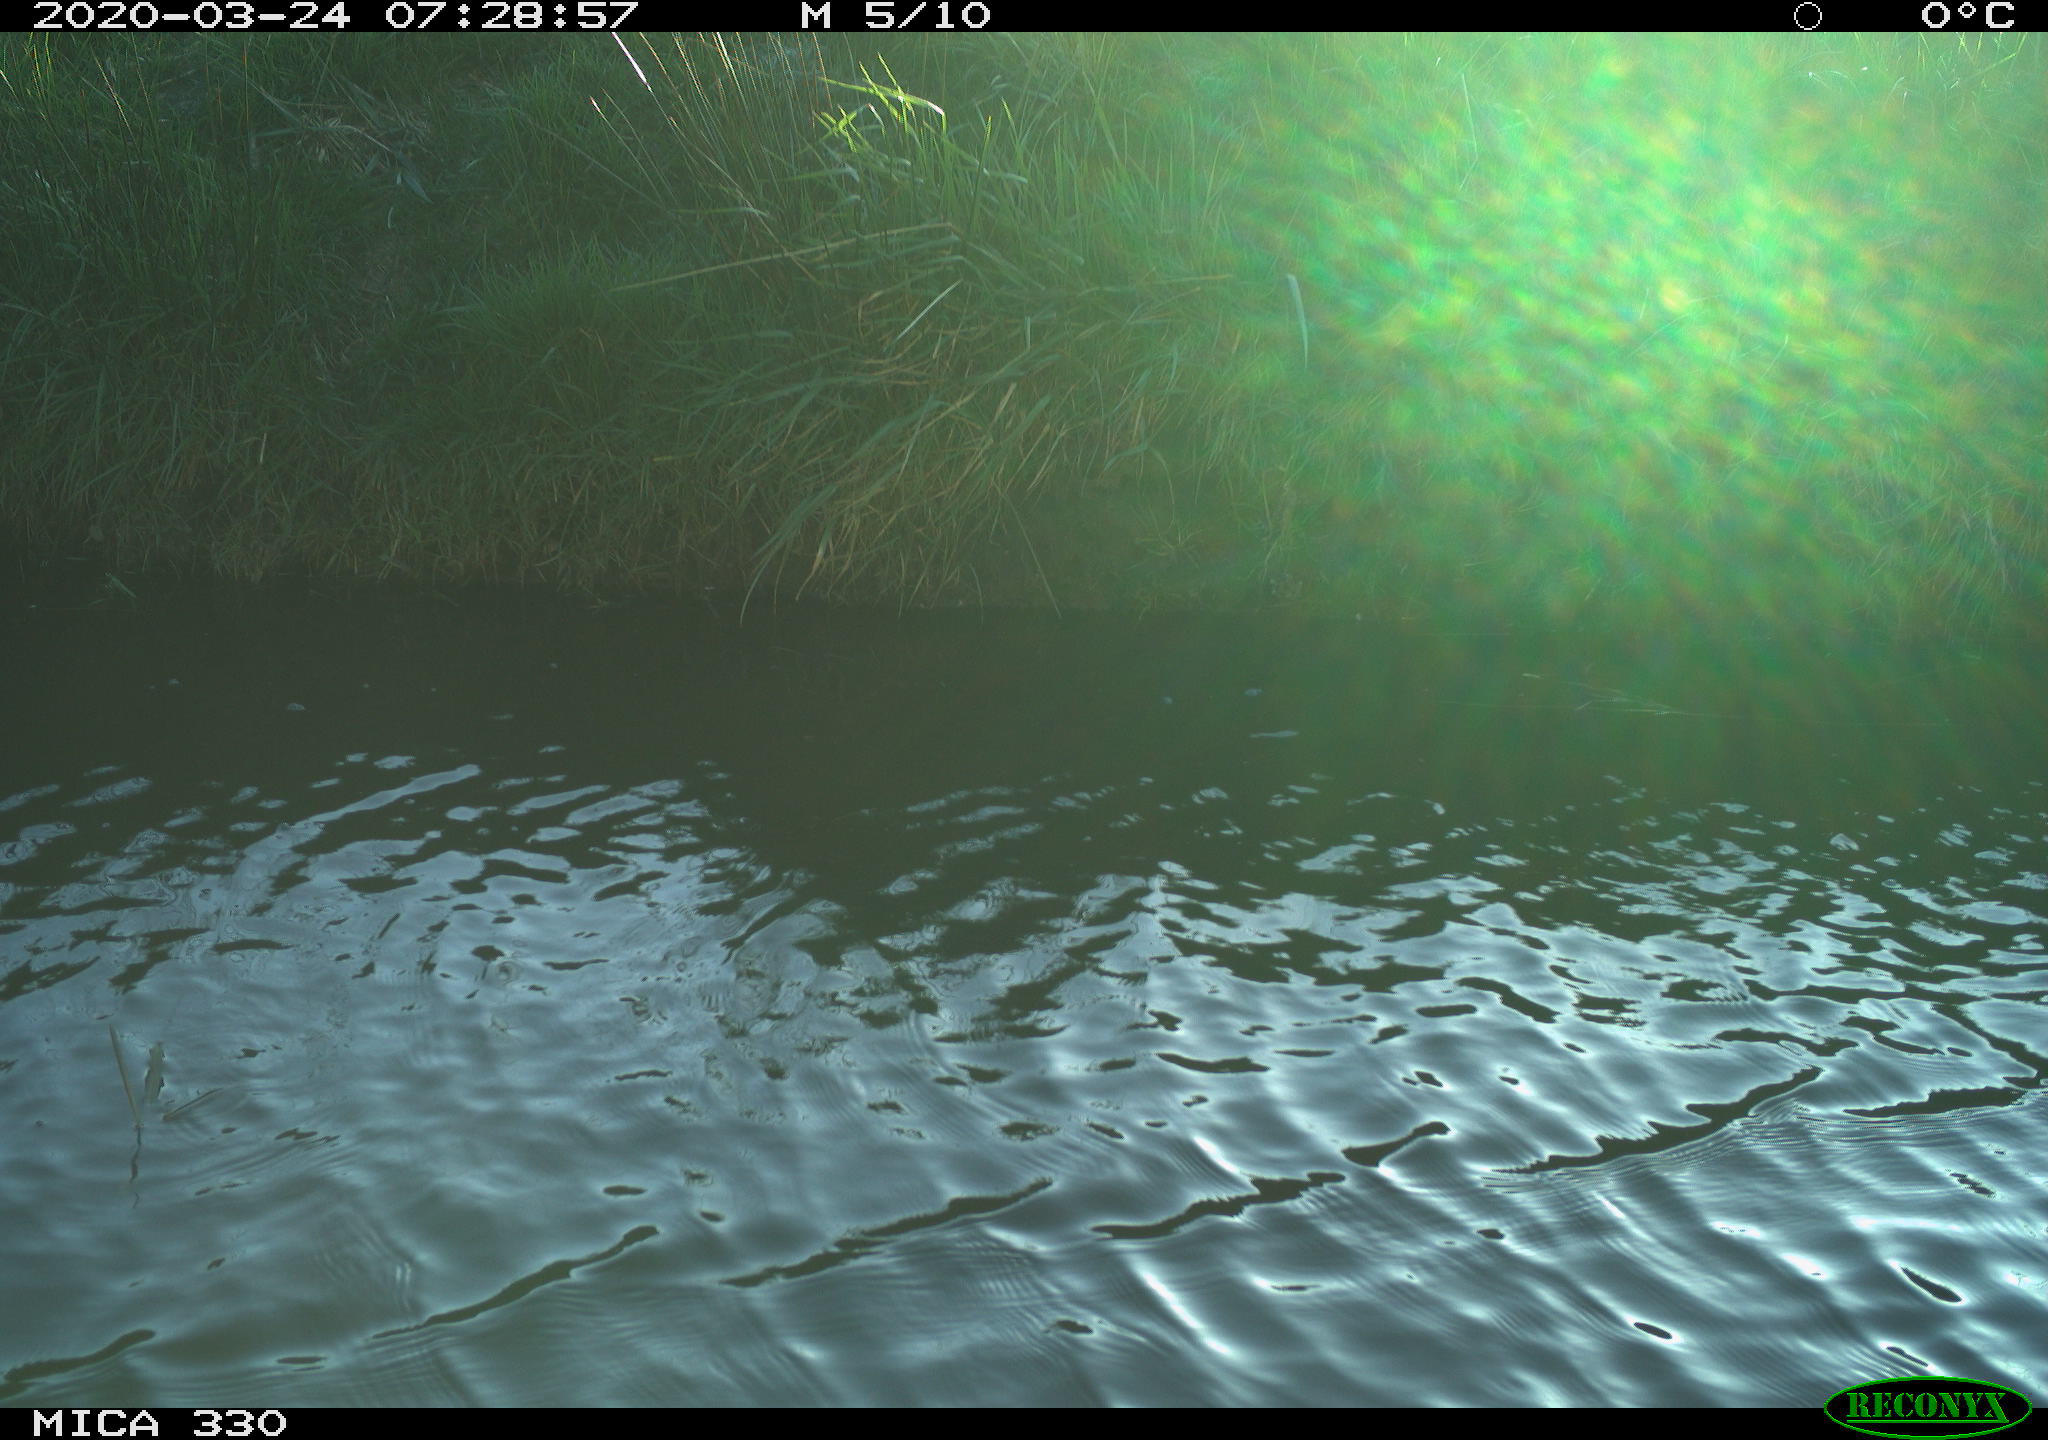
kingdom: Animalia
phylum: Chordata
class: Aves
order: Anseriformes
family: Anatidae
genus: Anas
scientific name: Anas platyrhynchos
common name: Mallard
